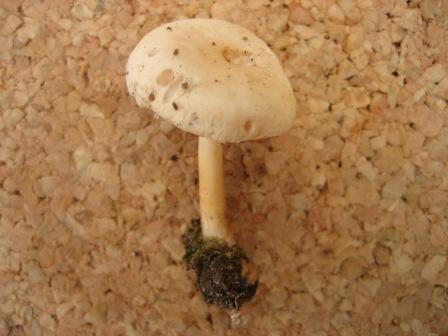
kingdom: Fungi
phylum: Basidiomycota
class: Agaricomycetes
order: Agaricales
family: Omphalotaceae
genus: Gymnopus
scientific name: Gymnopus dryophilus
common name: løv-fladhat
